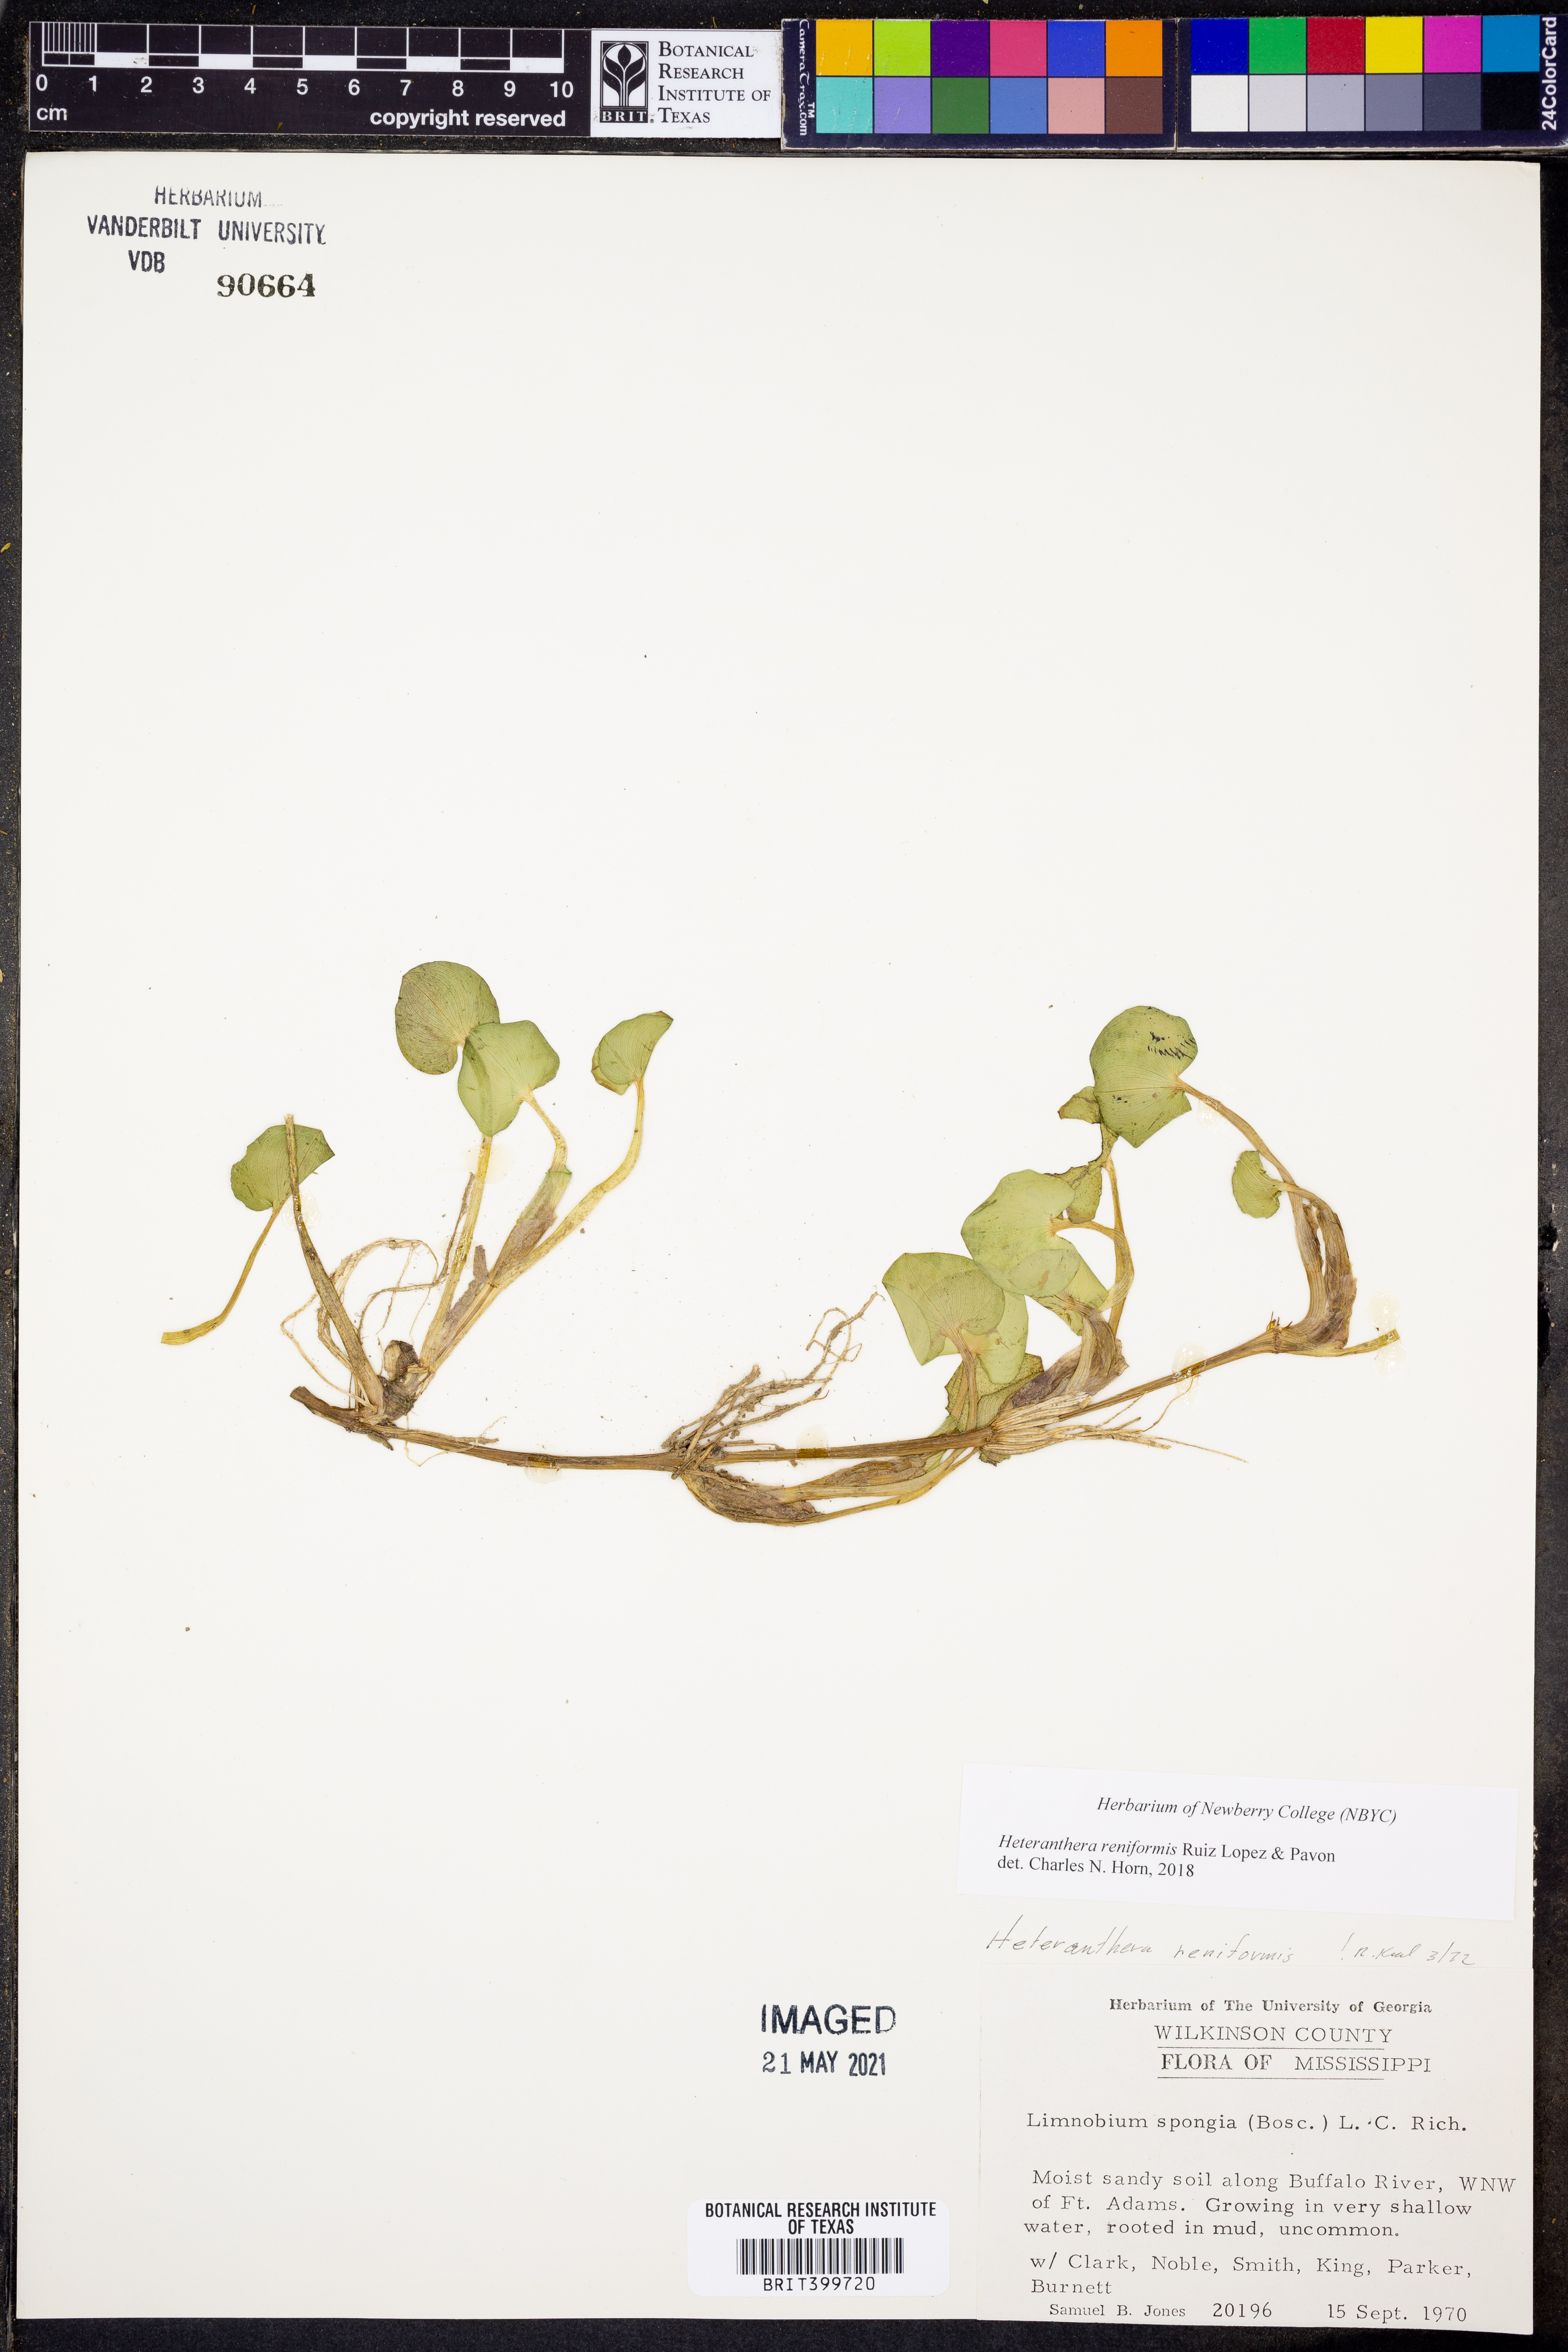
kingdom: Plantae
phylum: Tracheophyta
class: Liliopsida
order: Commelinales
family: Pontederiaceae
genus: Heteranthera
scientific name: Heteranthera reniformis
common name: Kidneyleaf mudplantain
